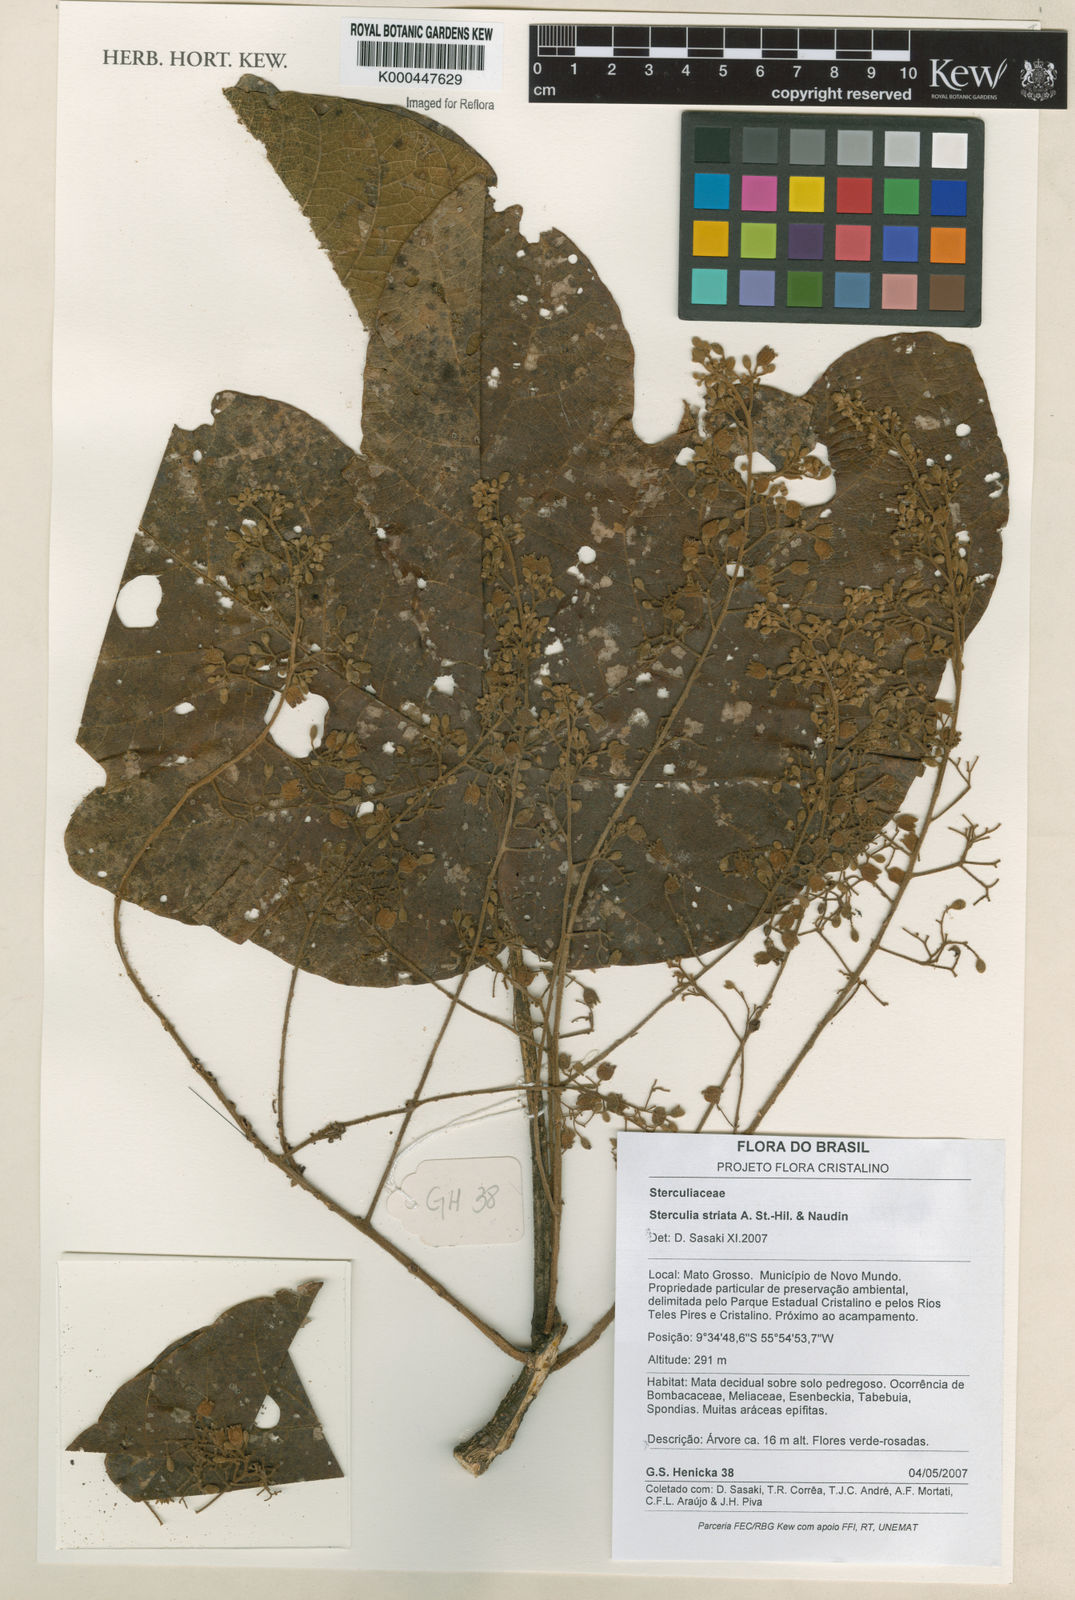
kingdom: Plantae
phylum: Tracheophyta
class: Magnoliopsida
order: Malvales
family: Malvaceae
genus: Sterculia
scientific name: Sterculia striata
